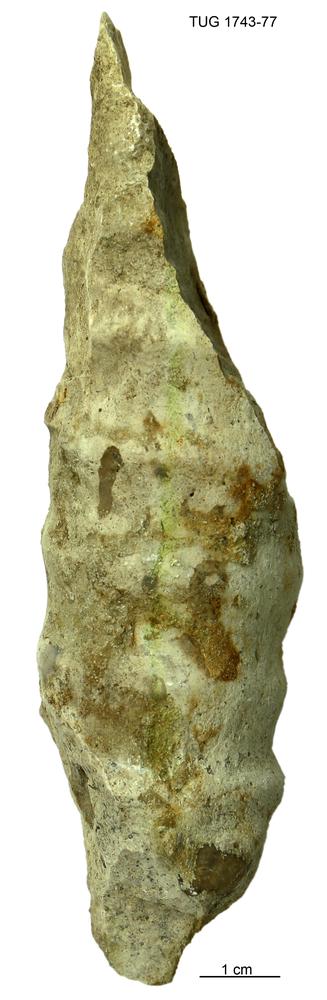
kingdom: Animalia
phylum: Mollusca
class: Cephalopoda
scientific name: Cephalopoda
